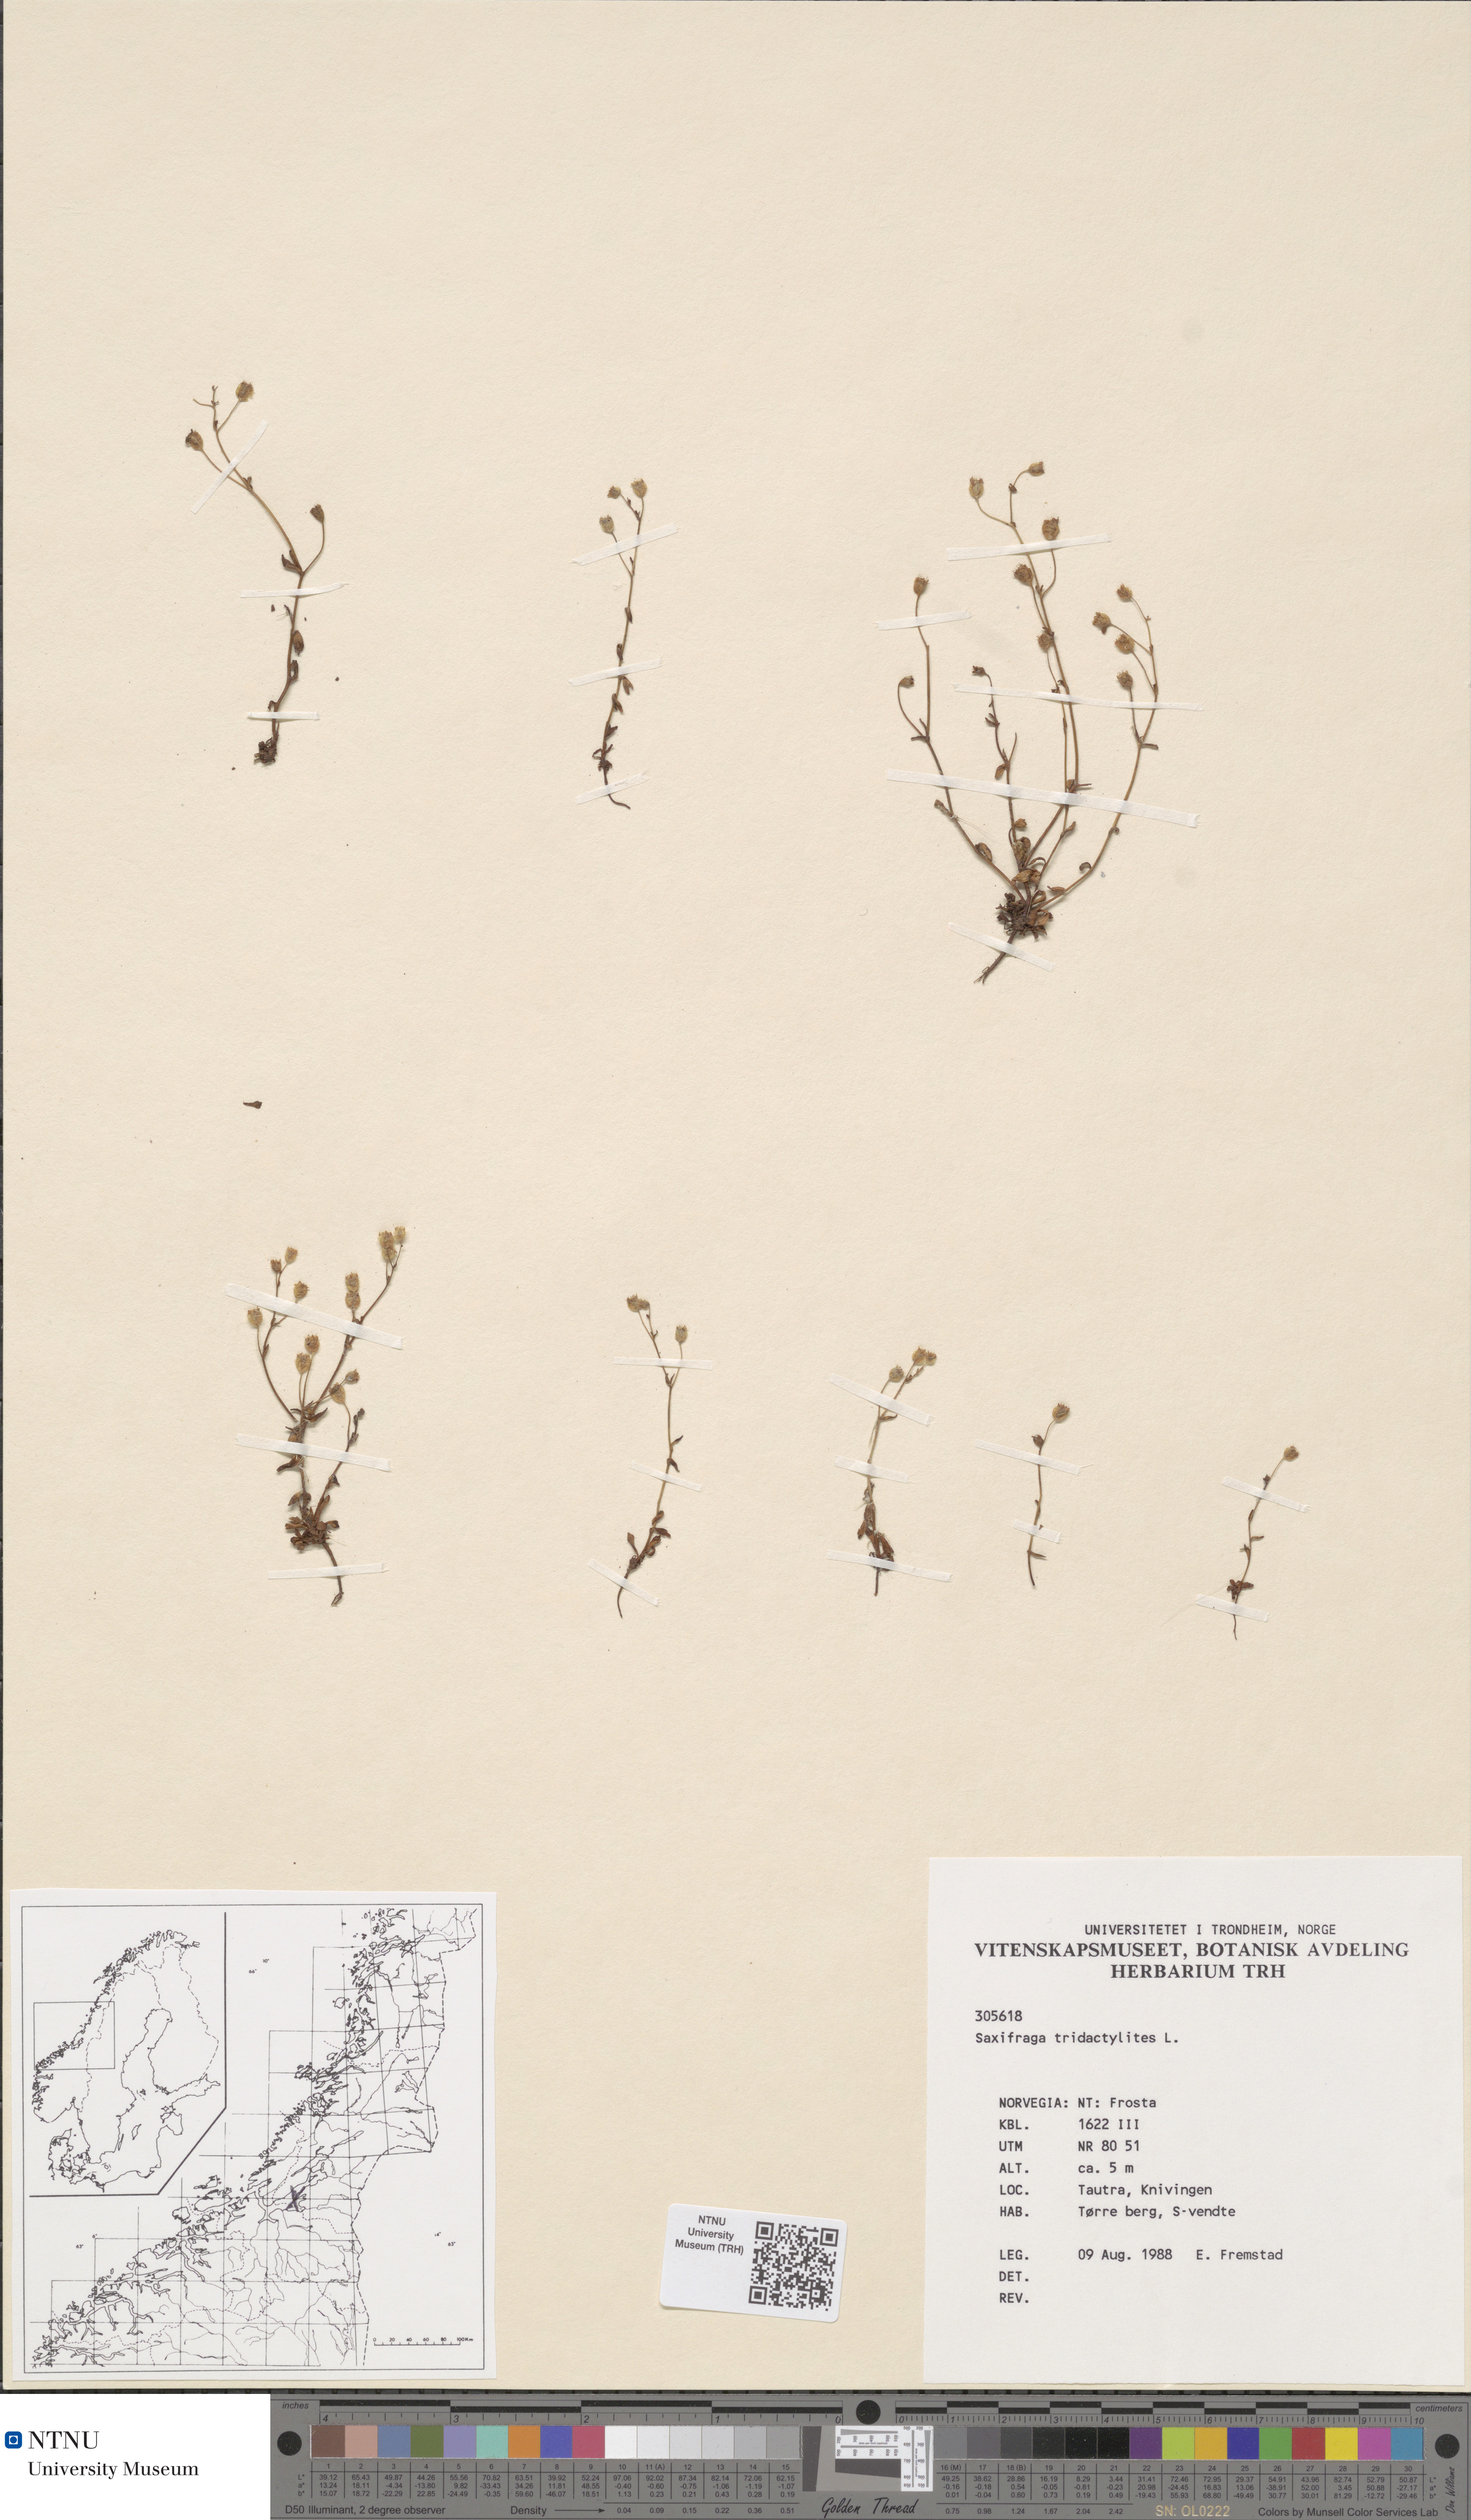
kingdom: Plantae
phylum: Tracheophyta
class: Magnoliopsida
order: Saxifragales
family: Saxifragaceae
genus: Saxifraga
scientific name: Saxifraga tridactylites
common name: Rue-leaved saxifrage
